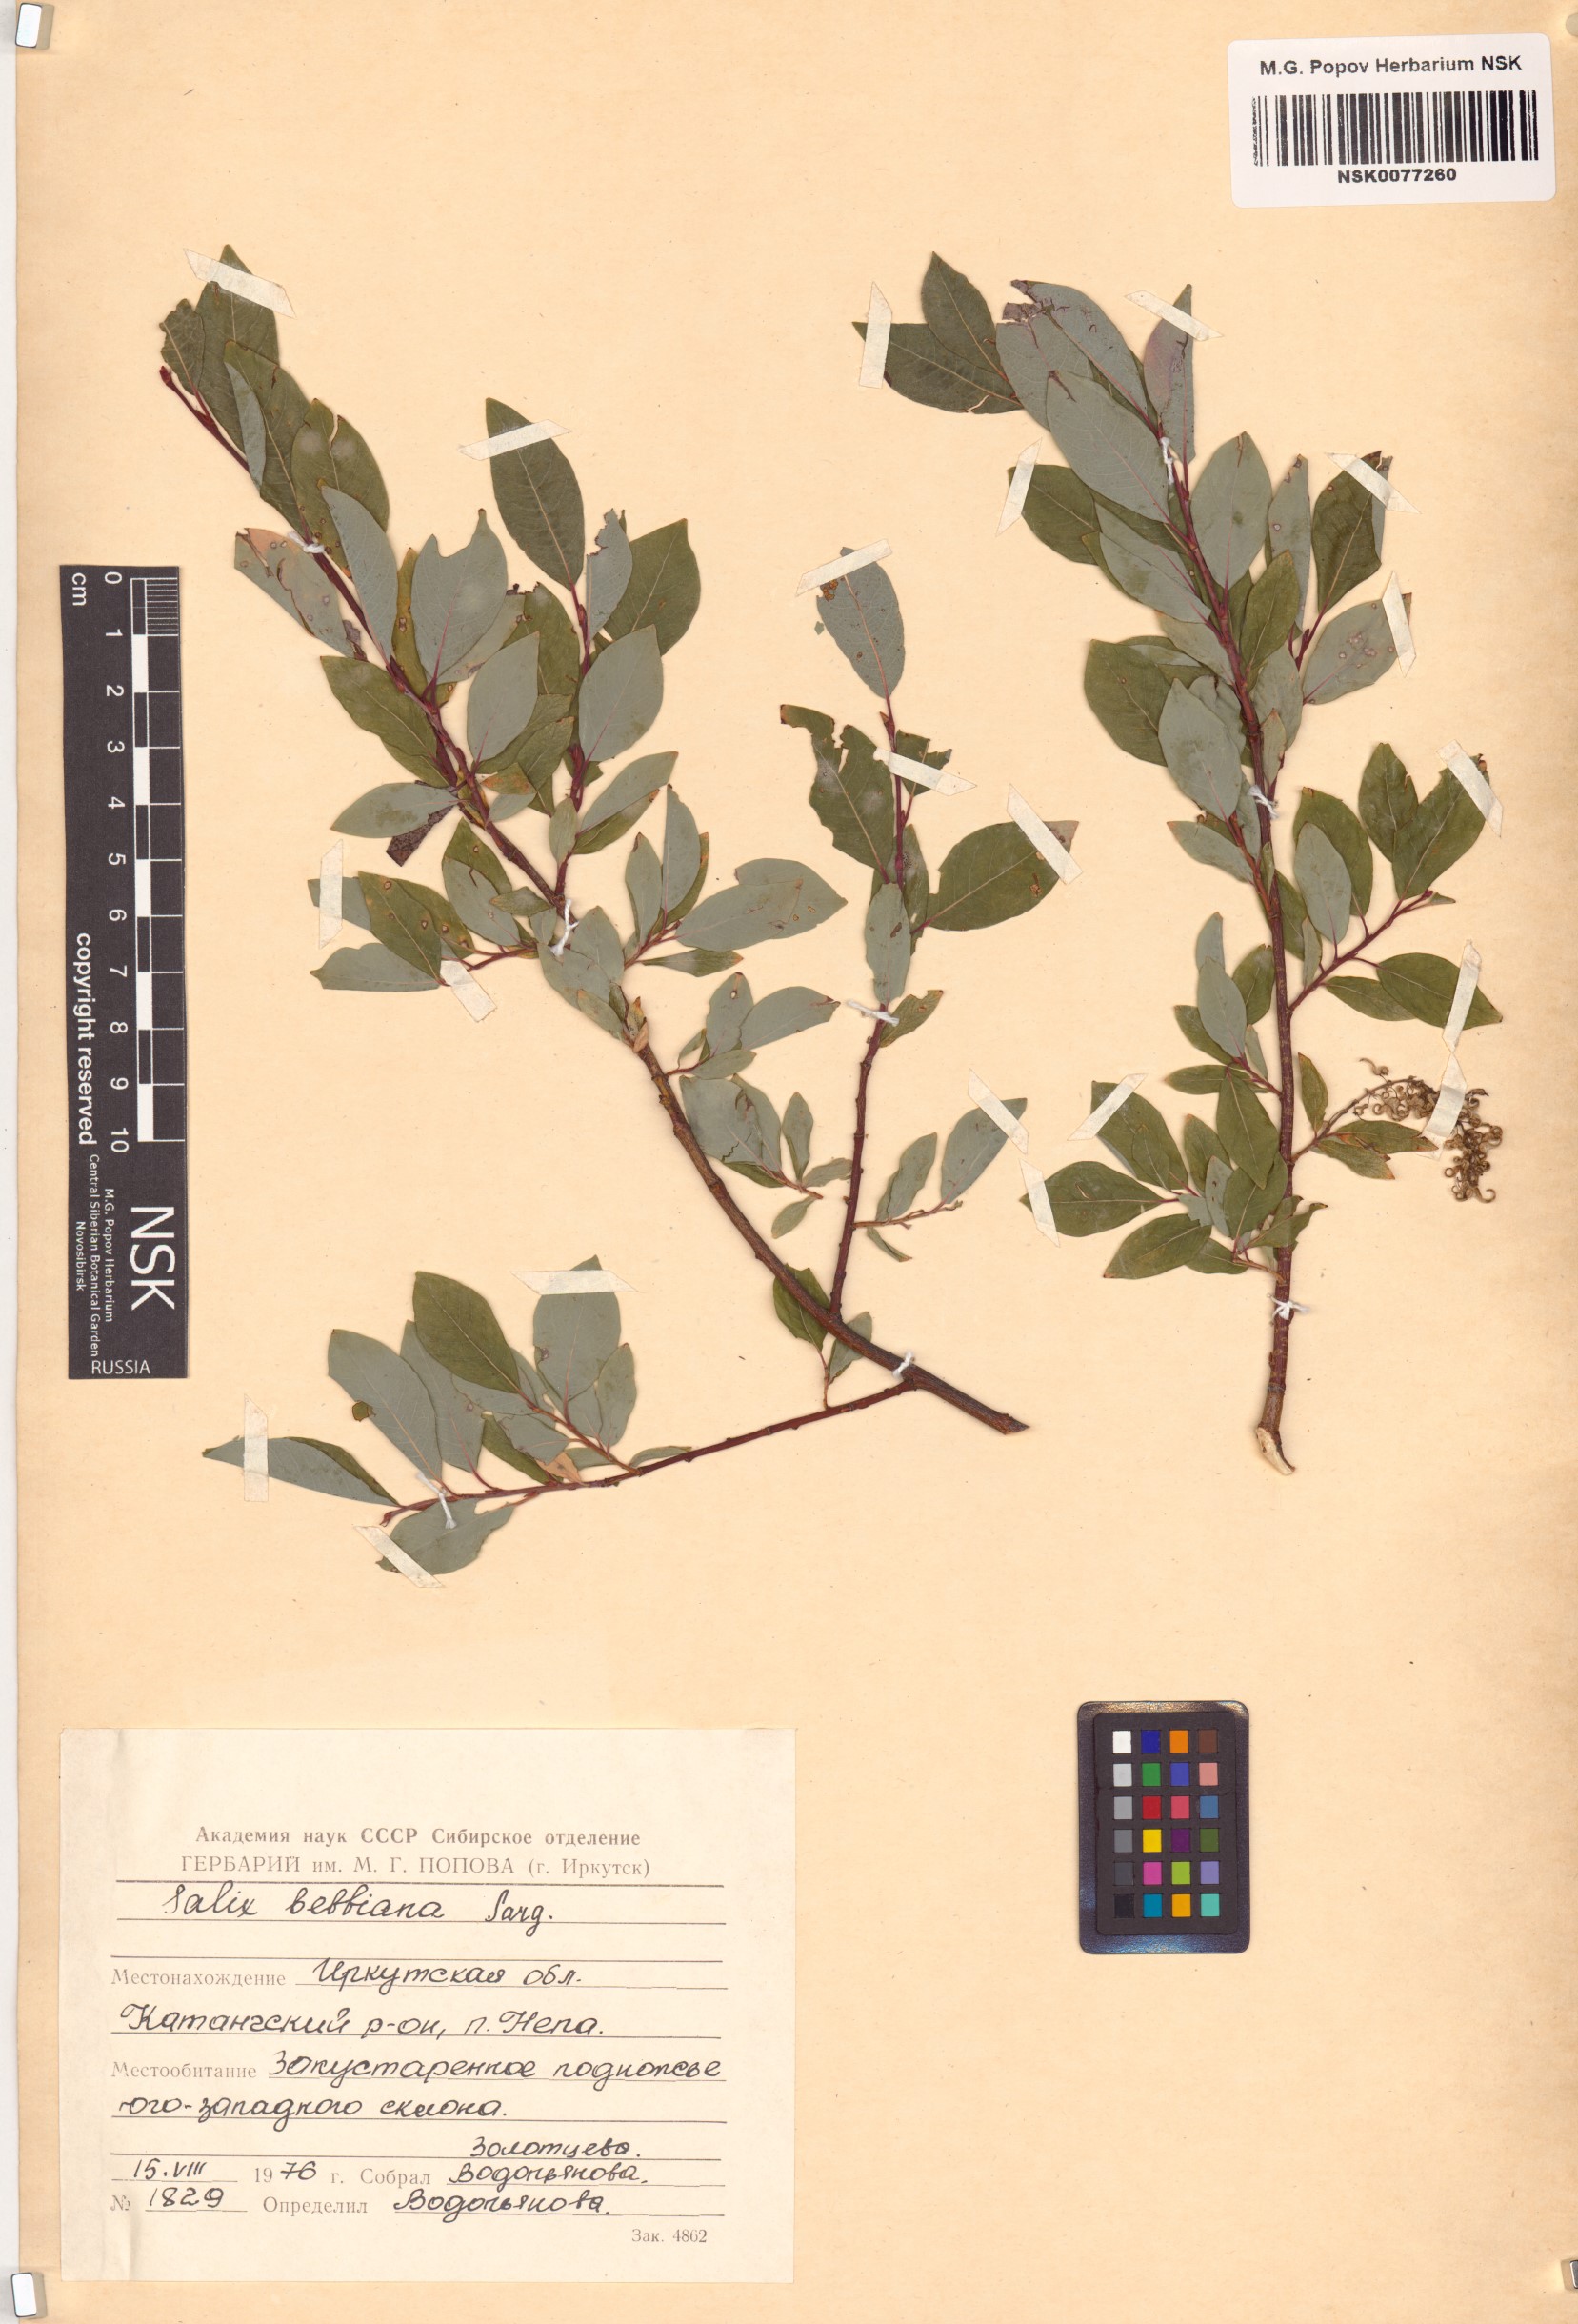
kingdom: Plantae
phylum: Tracheophyta
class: Magnoliopsida
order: Malpighiales
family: Salicaceae
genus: Salix
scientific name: Salix bebbiana
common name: Bebb's willow
